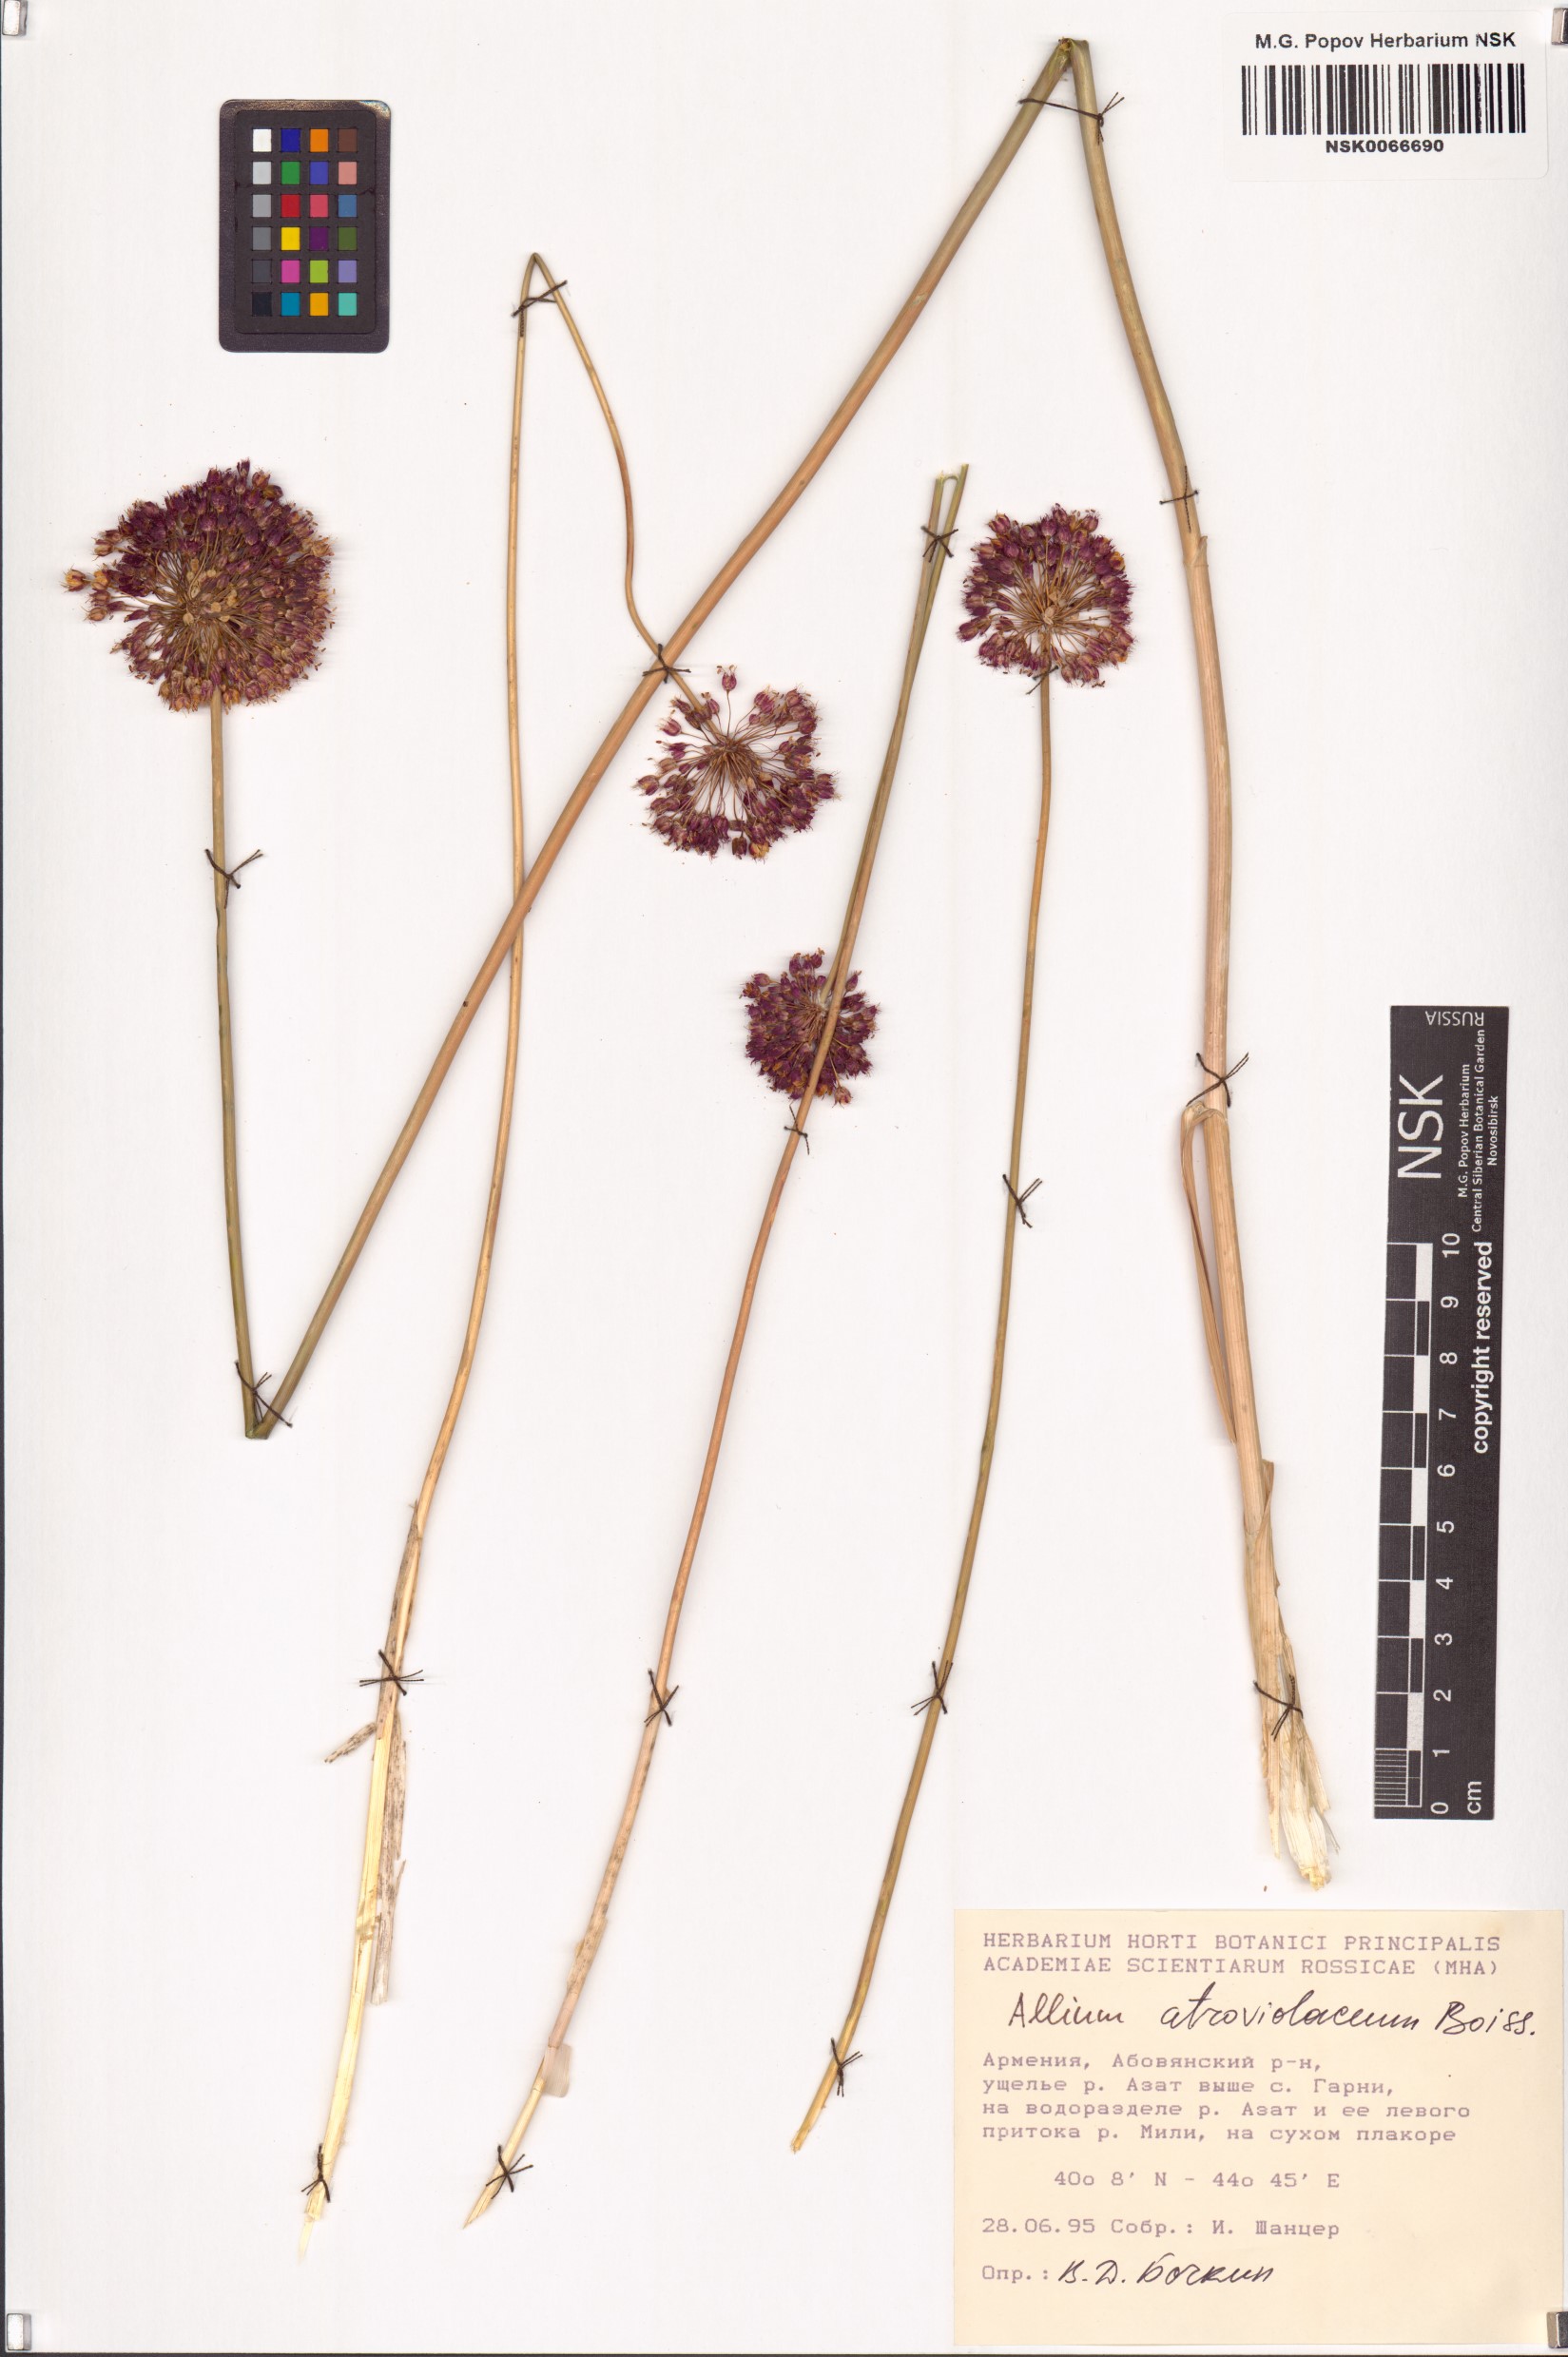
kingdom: Plantae
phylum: Tracheophyta
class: Liliopsida
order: Asparagales
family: Amaryllidaceae
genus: Allium
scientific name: Allium atroviolaceum
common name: Broadleaf wild leek
